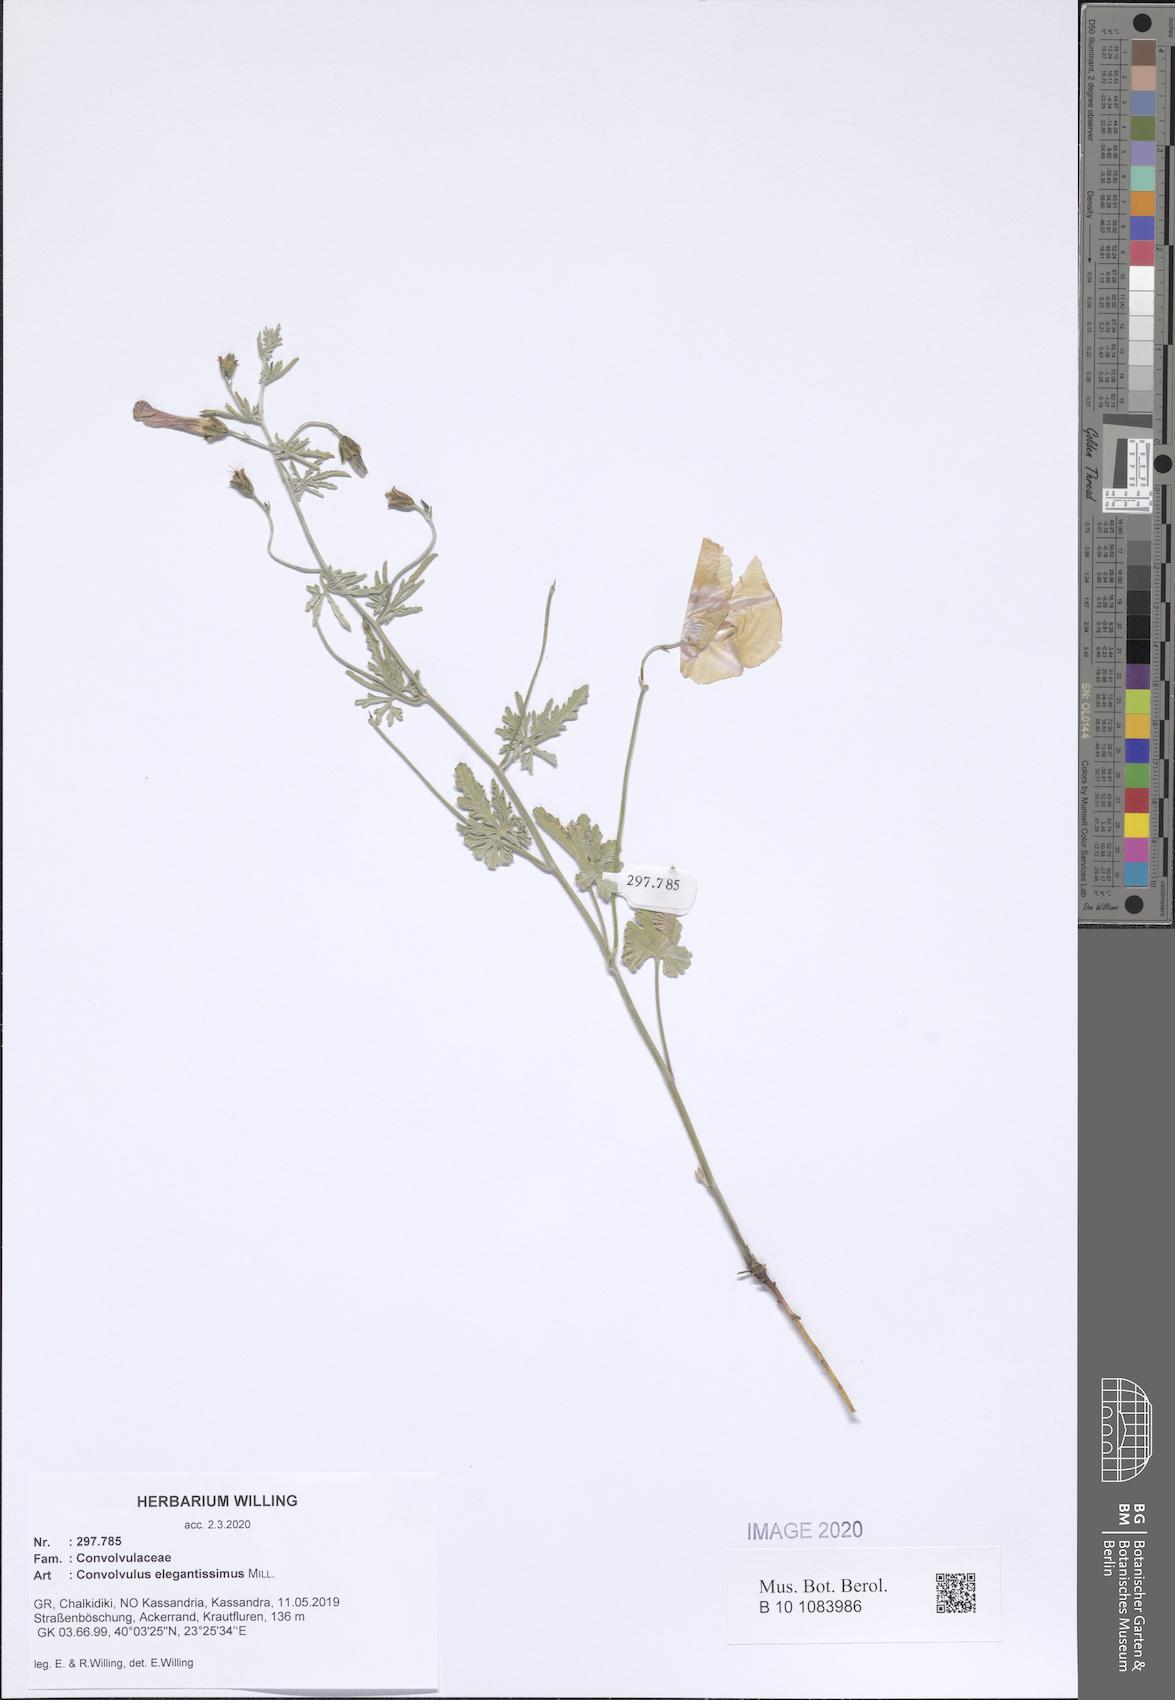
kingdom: Plantae
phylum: Tracheophyta
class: Magnoliopsida
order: Solanales
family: Convolvulaceae
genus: Convolvulus
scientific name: Convolvulus elegantissimus
